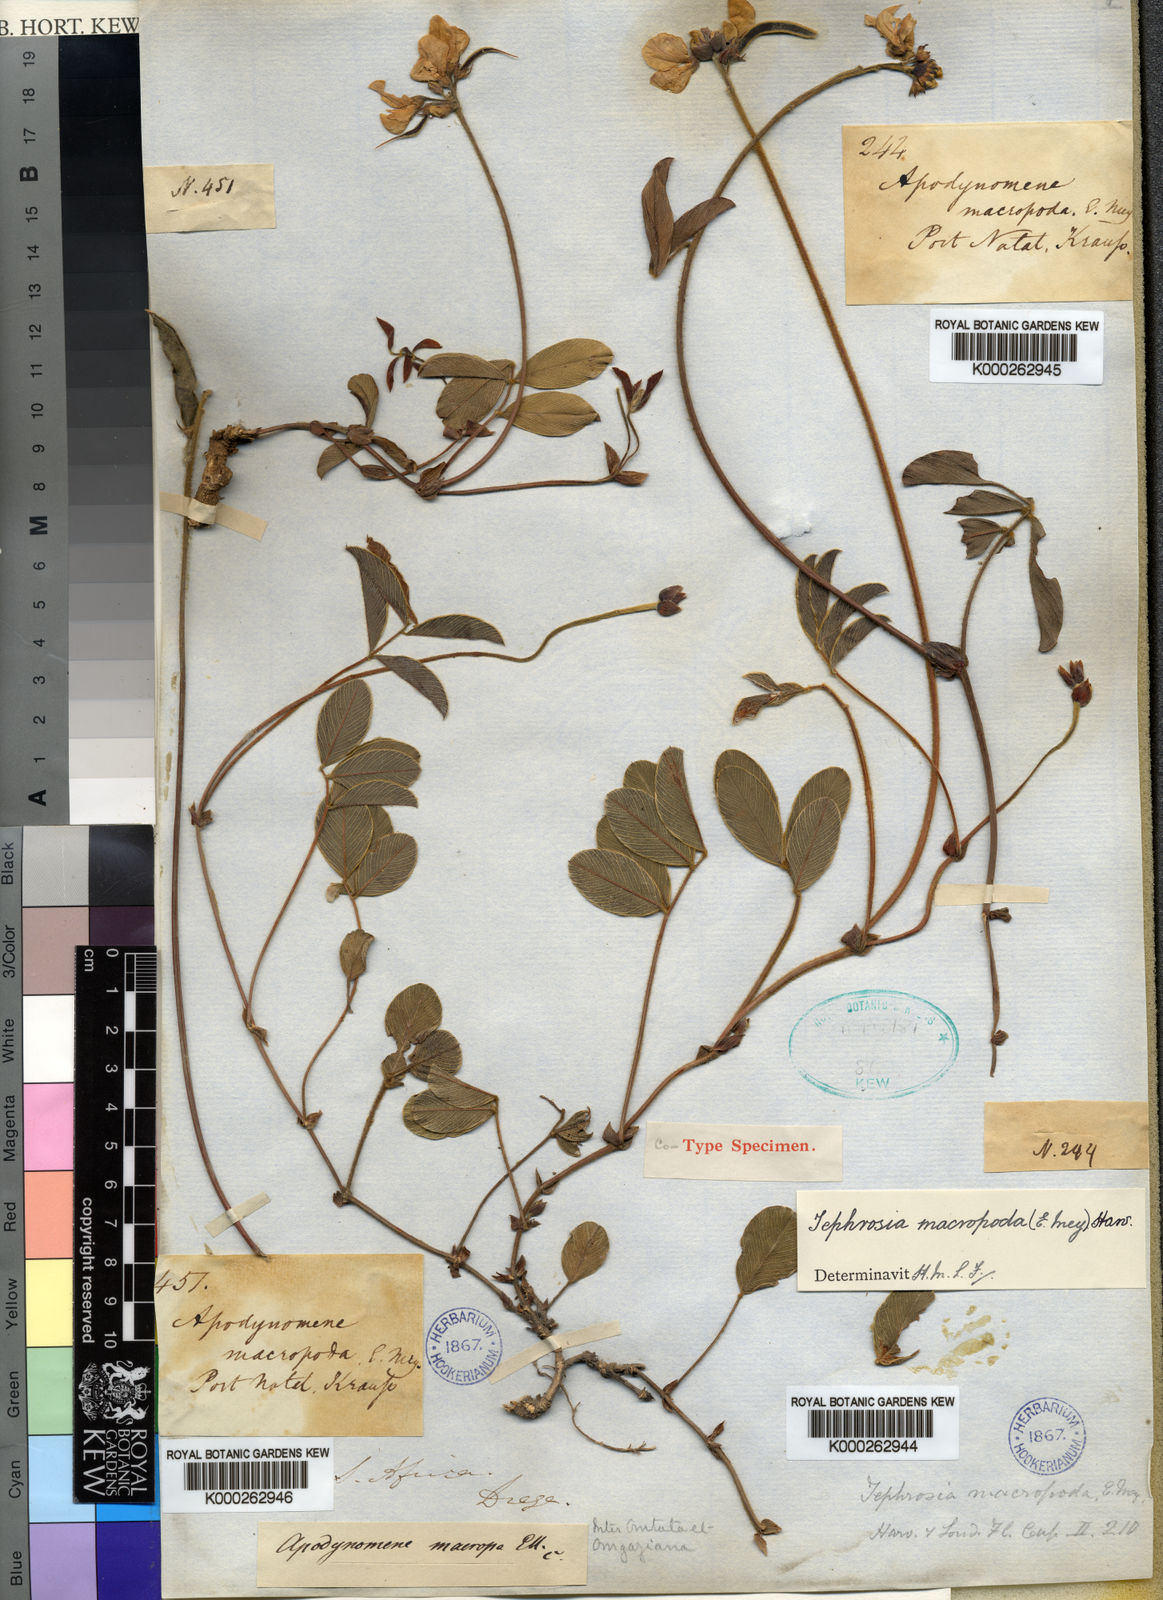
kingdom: Plantae
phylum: Tracheophyta
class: Magnoliopsida
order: Fabales
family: Fabaceae
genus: Tephrosia
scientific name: Tephrosia macropoda
